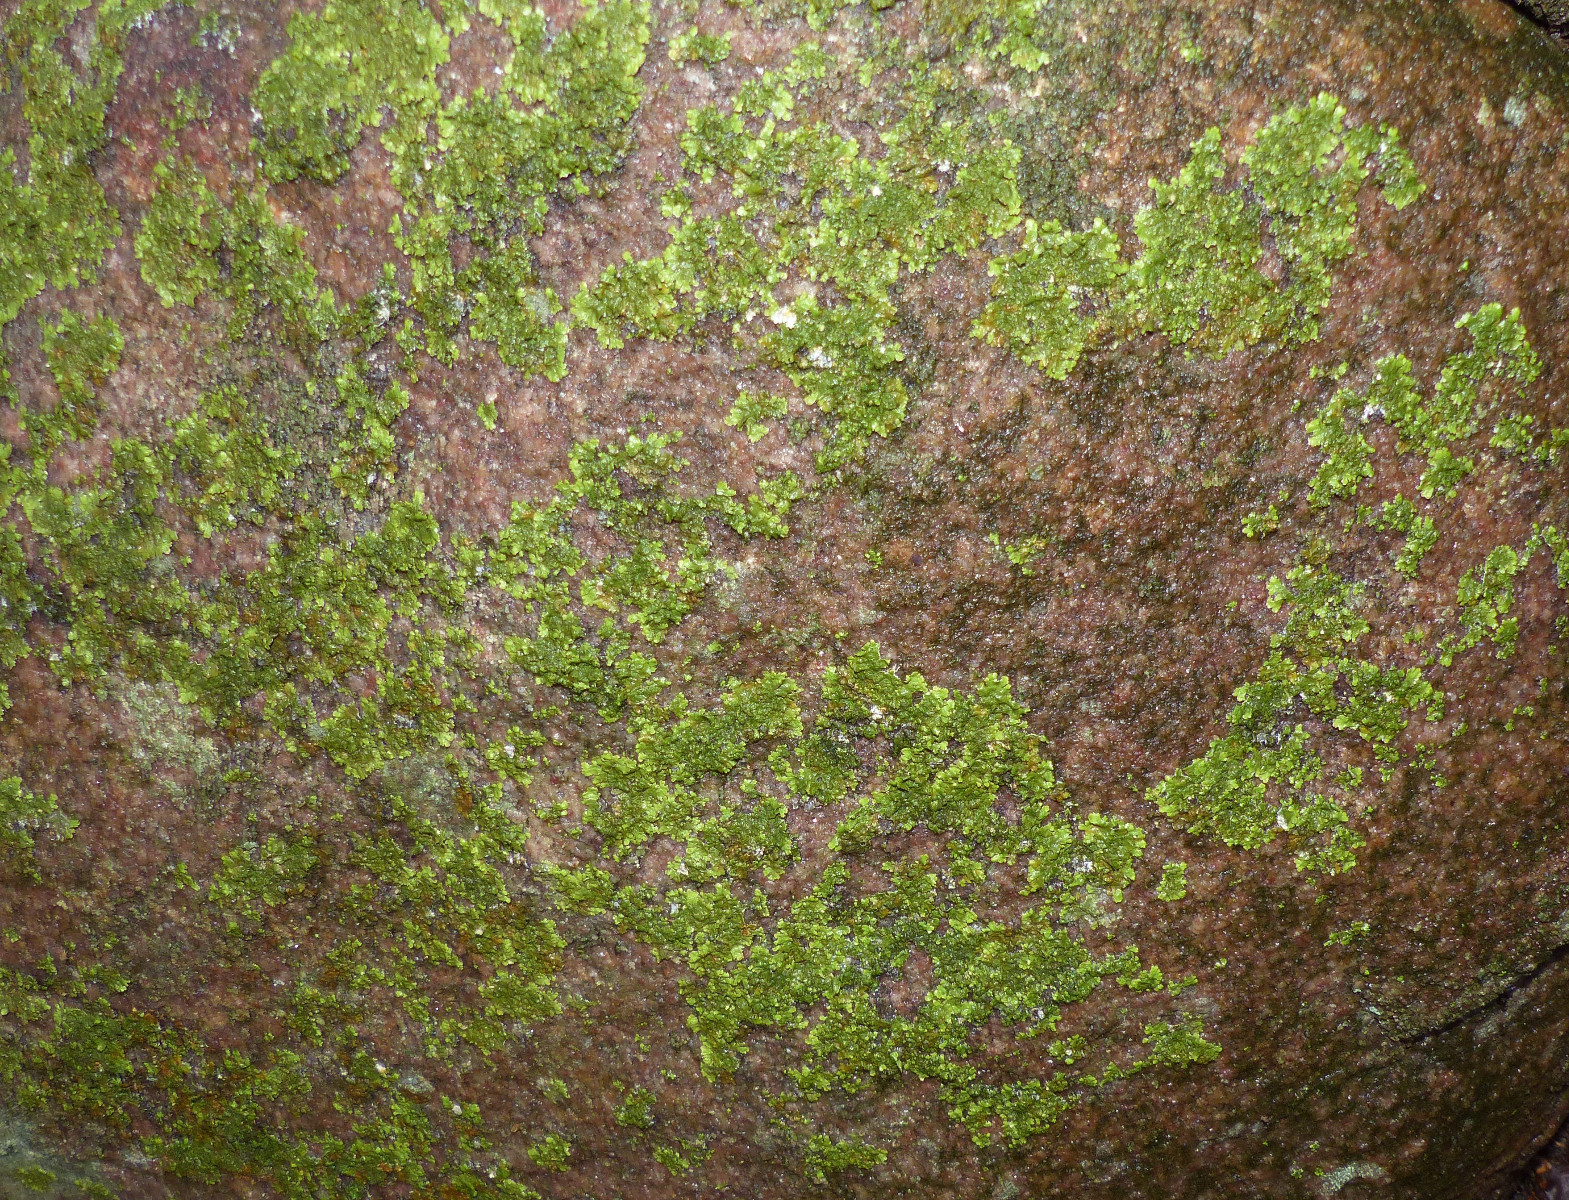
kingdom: Fungi
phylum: Ascomycota
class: Lecanoromycetes
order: Lecanorales
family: Parmeliaceae
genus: Melanelixia
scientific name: Melanelixia glabratula
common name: glinsende skållav
